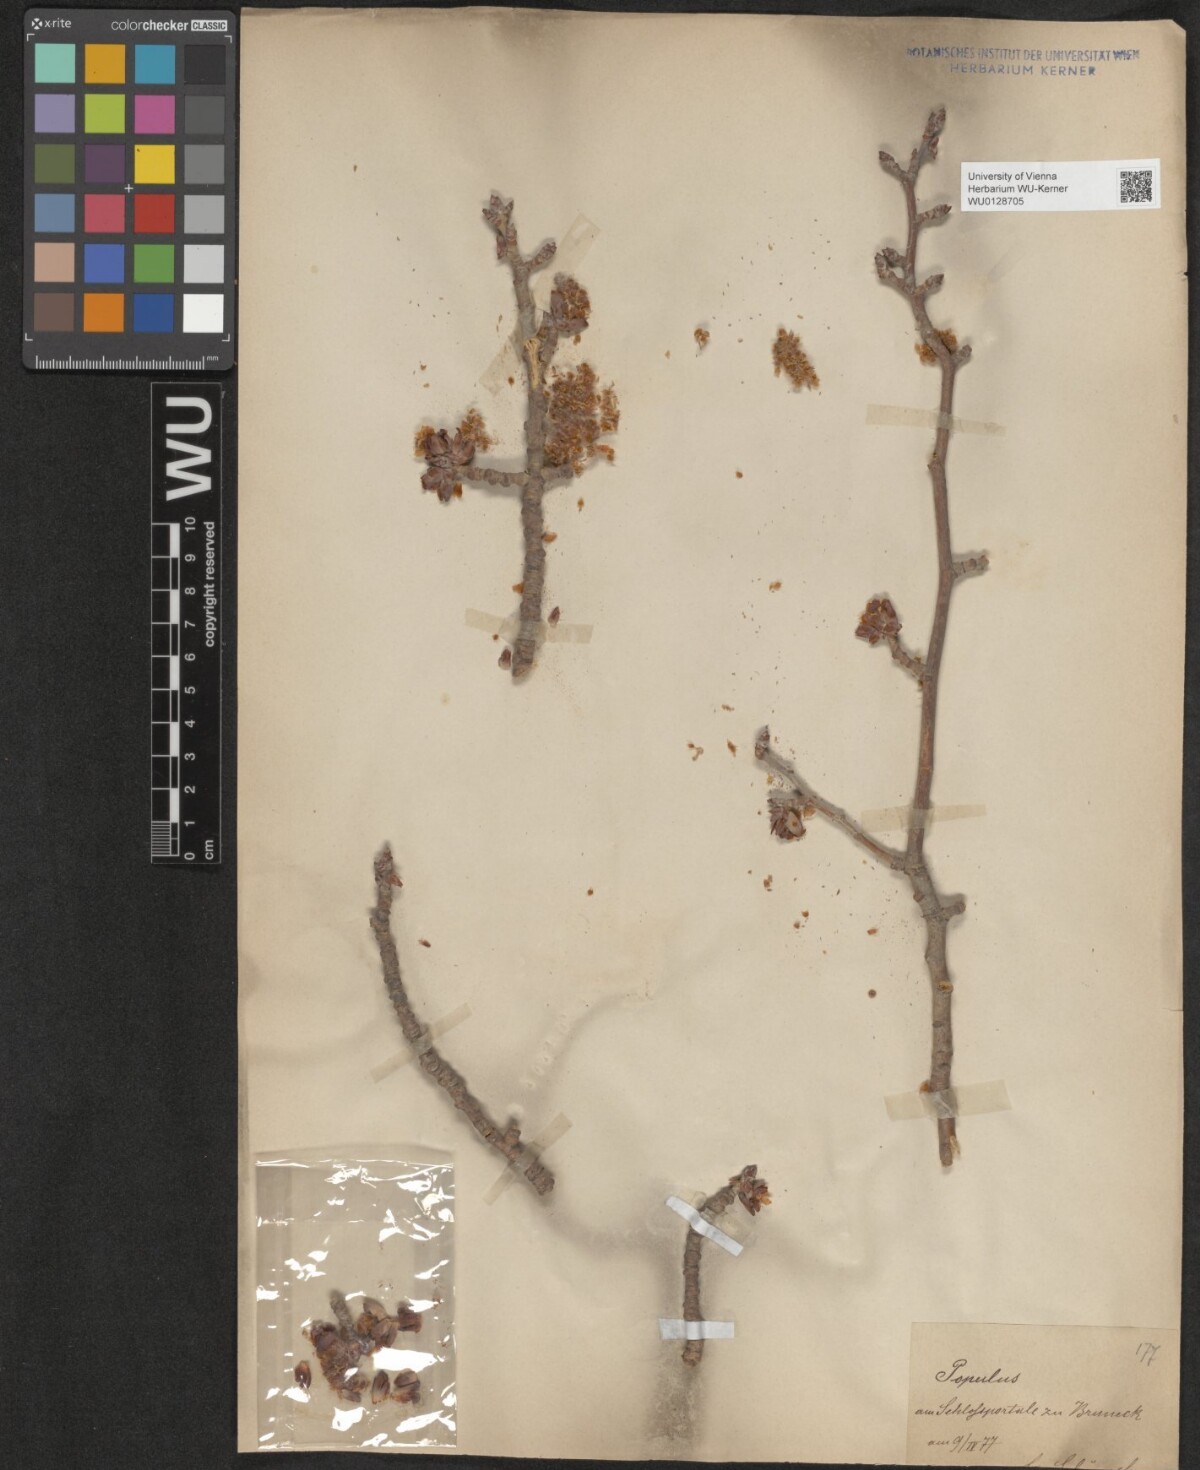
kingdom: Plantae
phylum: Tracheophyta
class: Magnoliopsida
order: Malpighiales
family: Salicaceae
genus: Populus
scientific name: Populus
